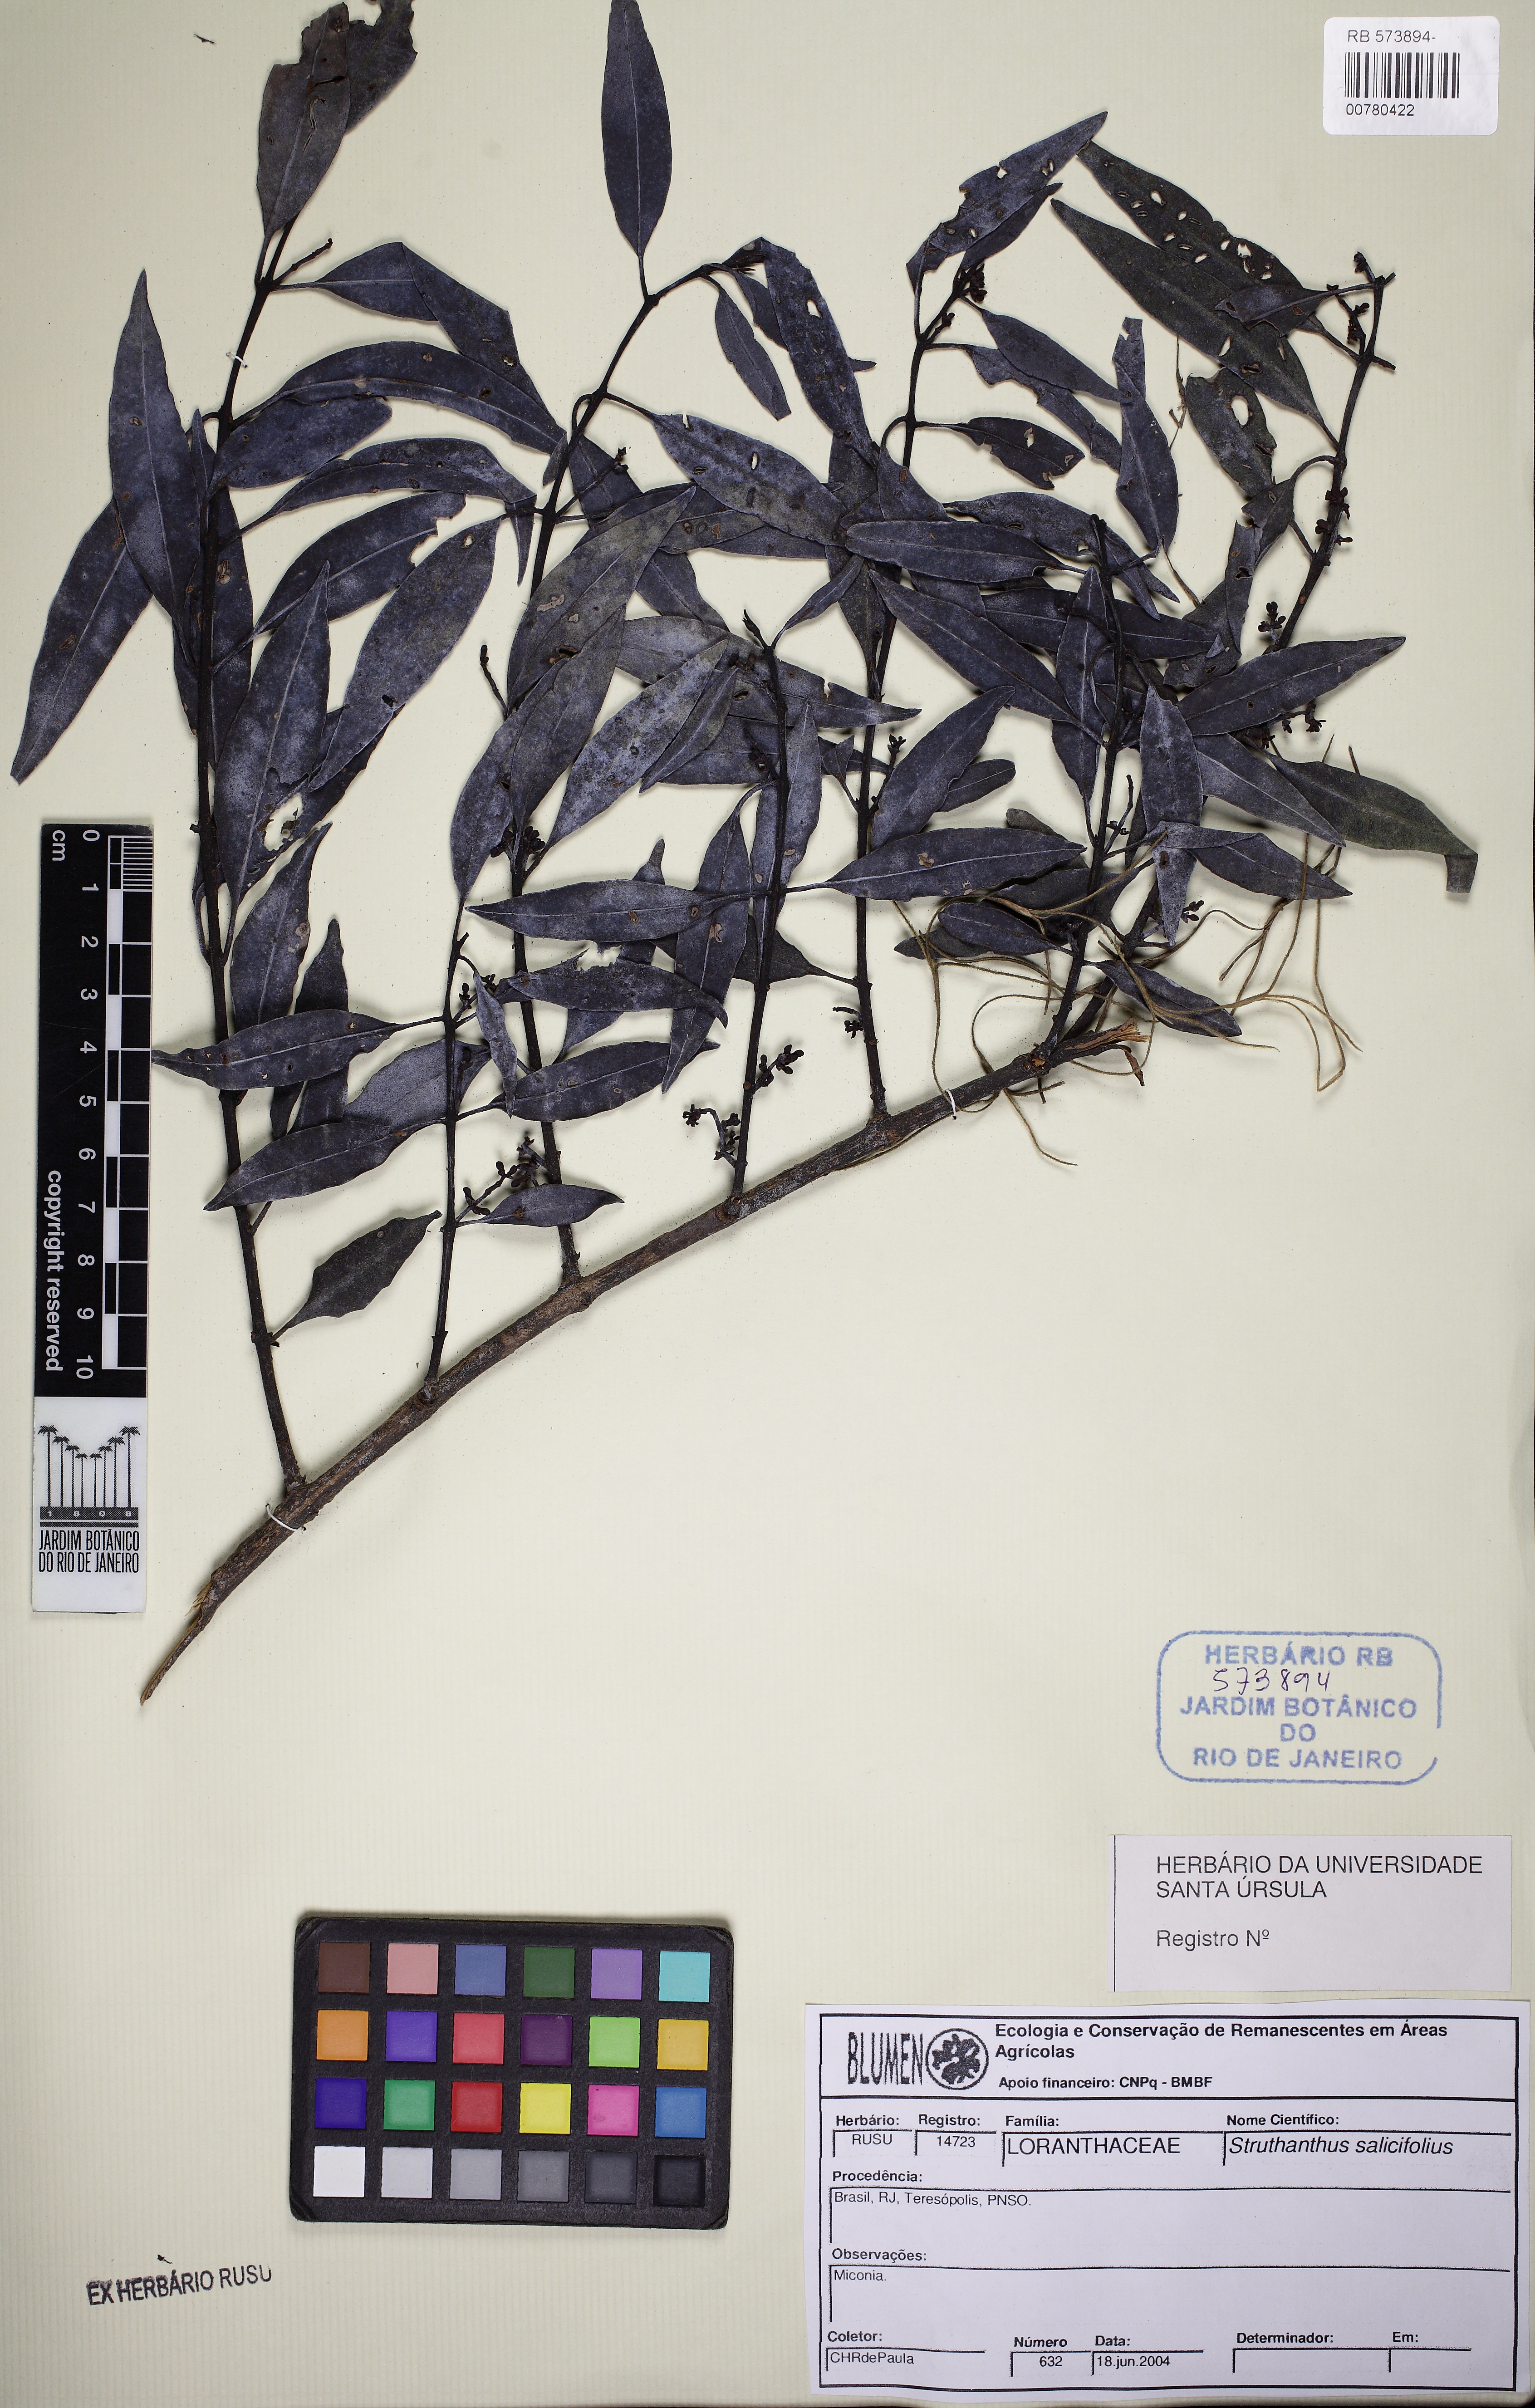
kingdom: Plantae
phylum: Tracheophyta
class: Magnoliopsida
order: Santalales
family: Loranthaceae
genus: Struthanthus
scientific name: Struthanthus salicifolius
